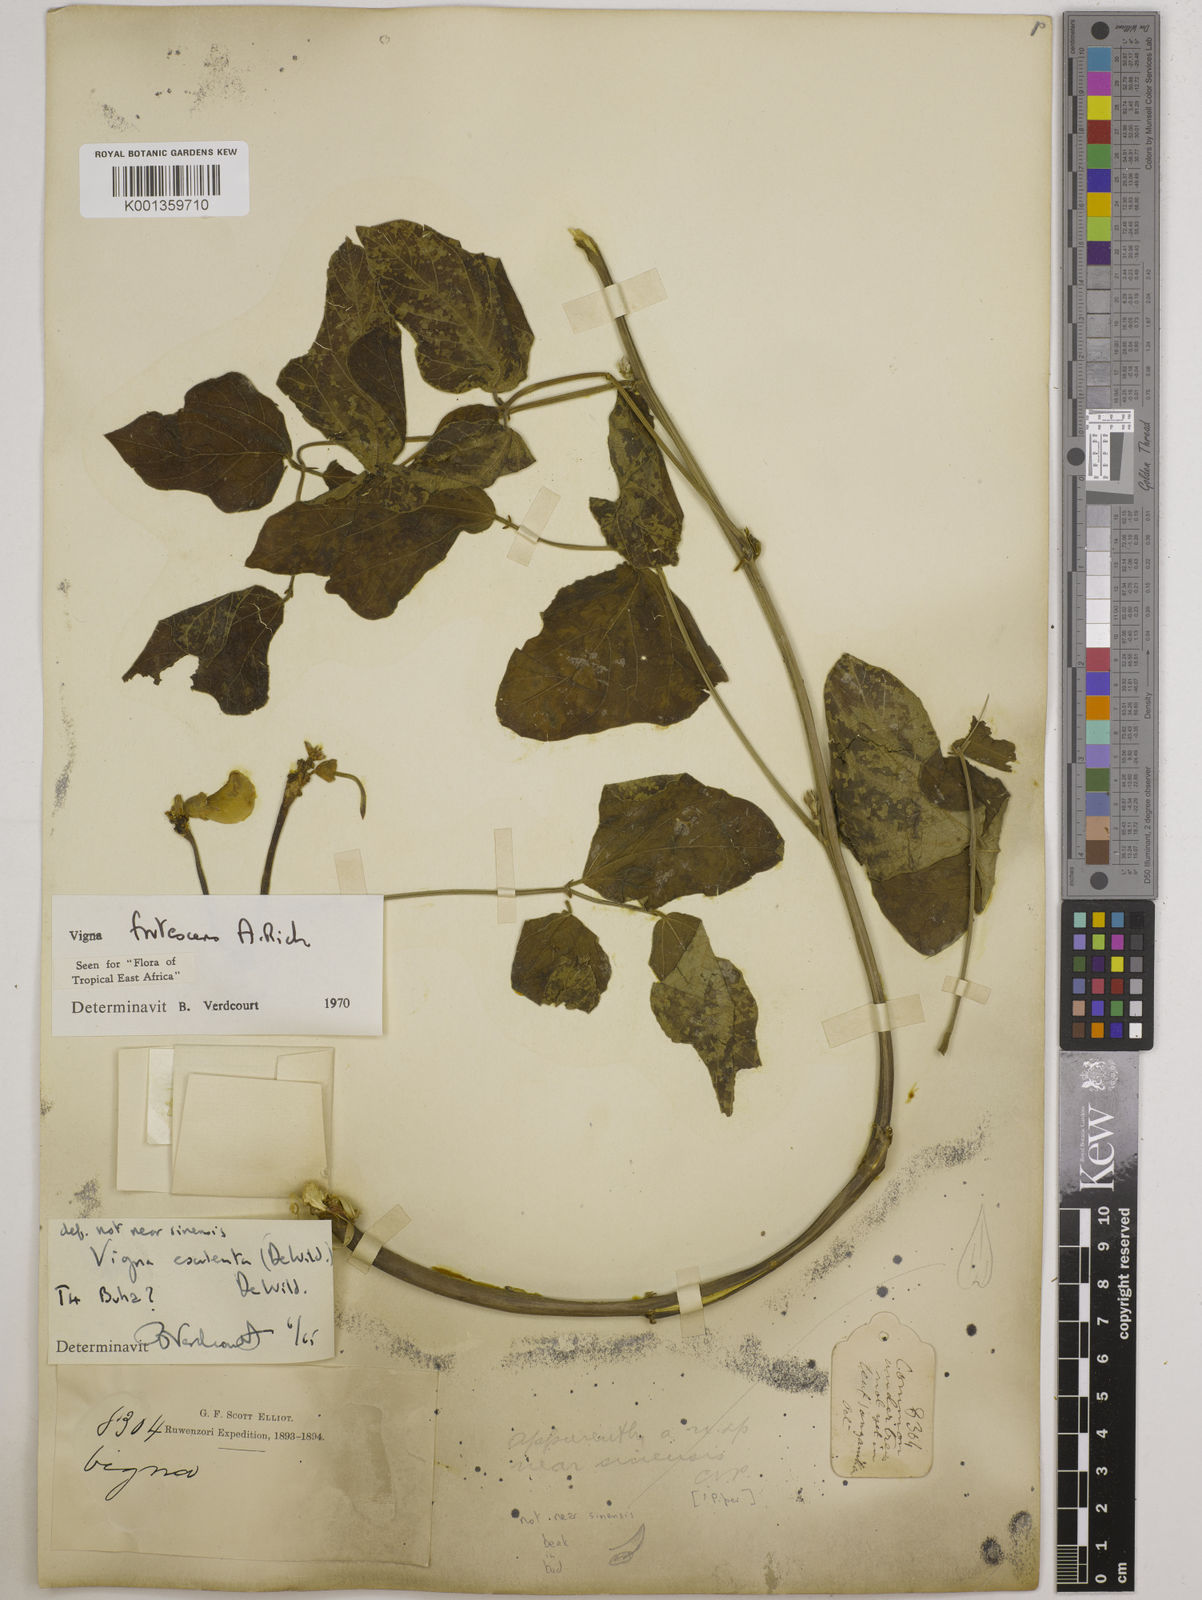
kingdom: Plantae
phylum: Tracheophyta
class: Magnoliopsida
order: Fabales
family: Fabaceae
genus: Vigna
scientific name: Vigna frutescens
